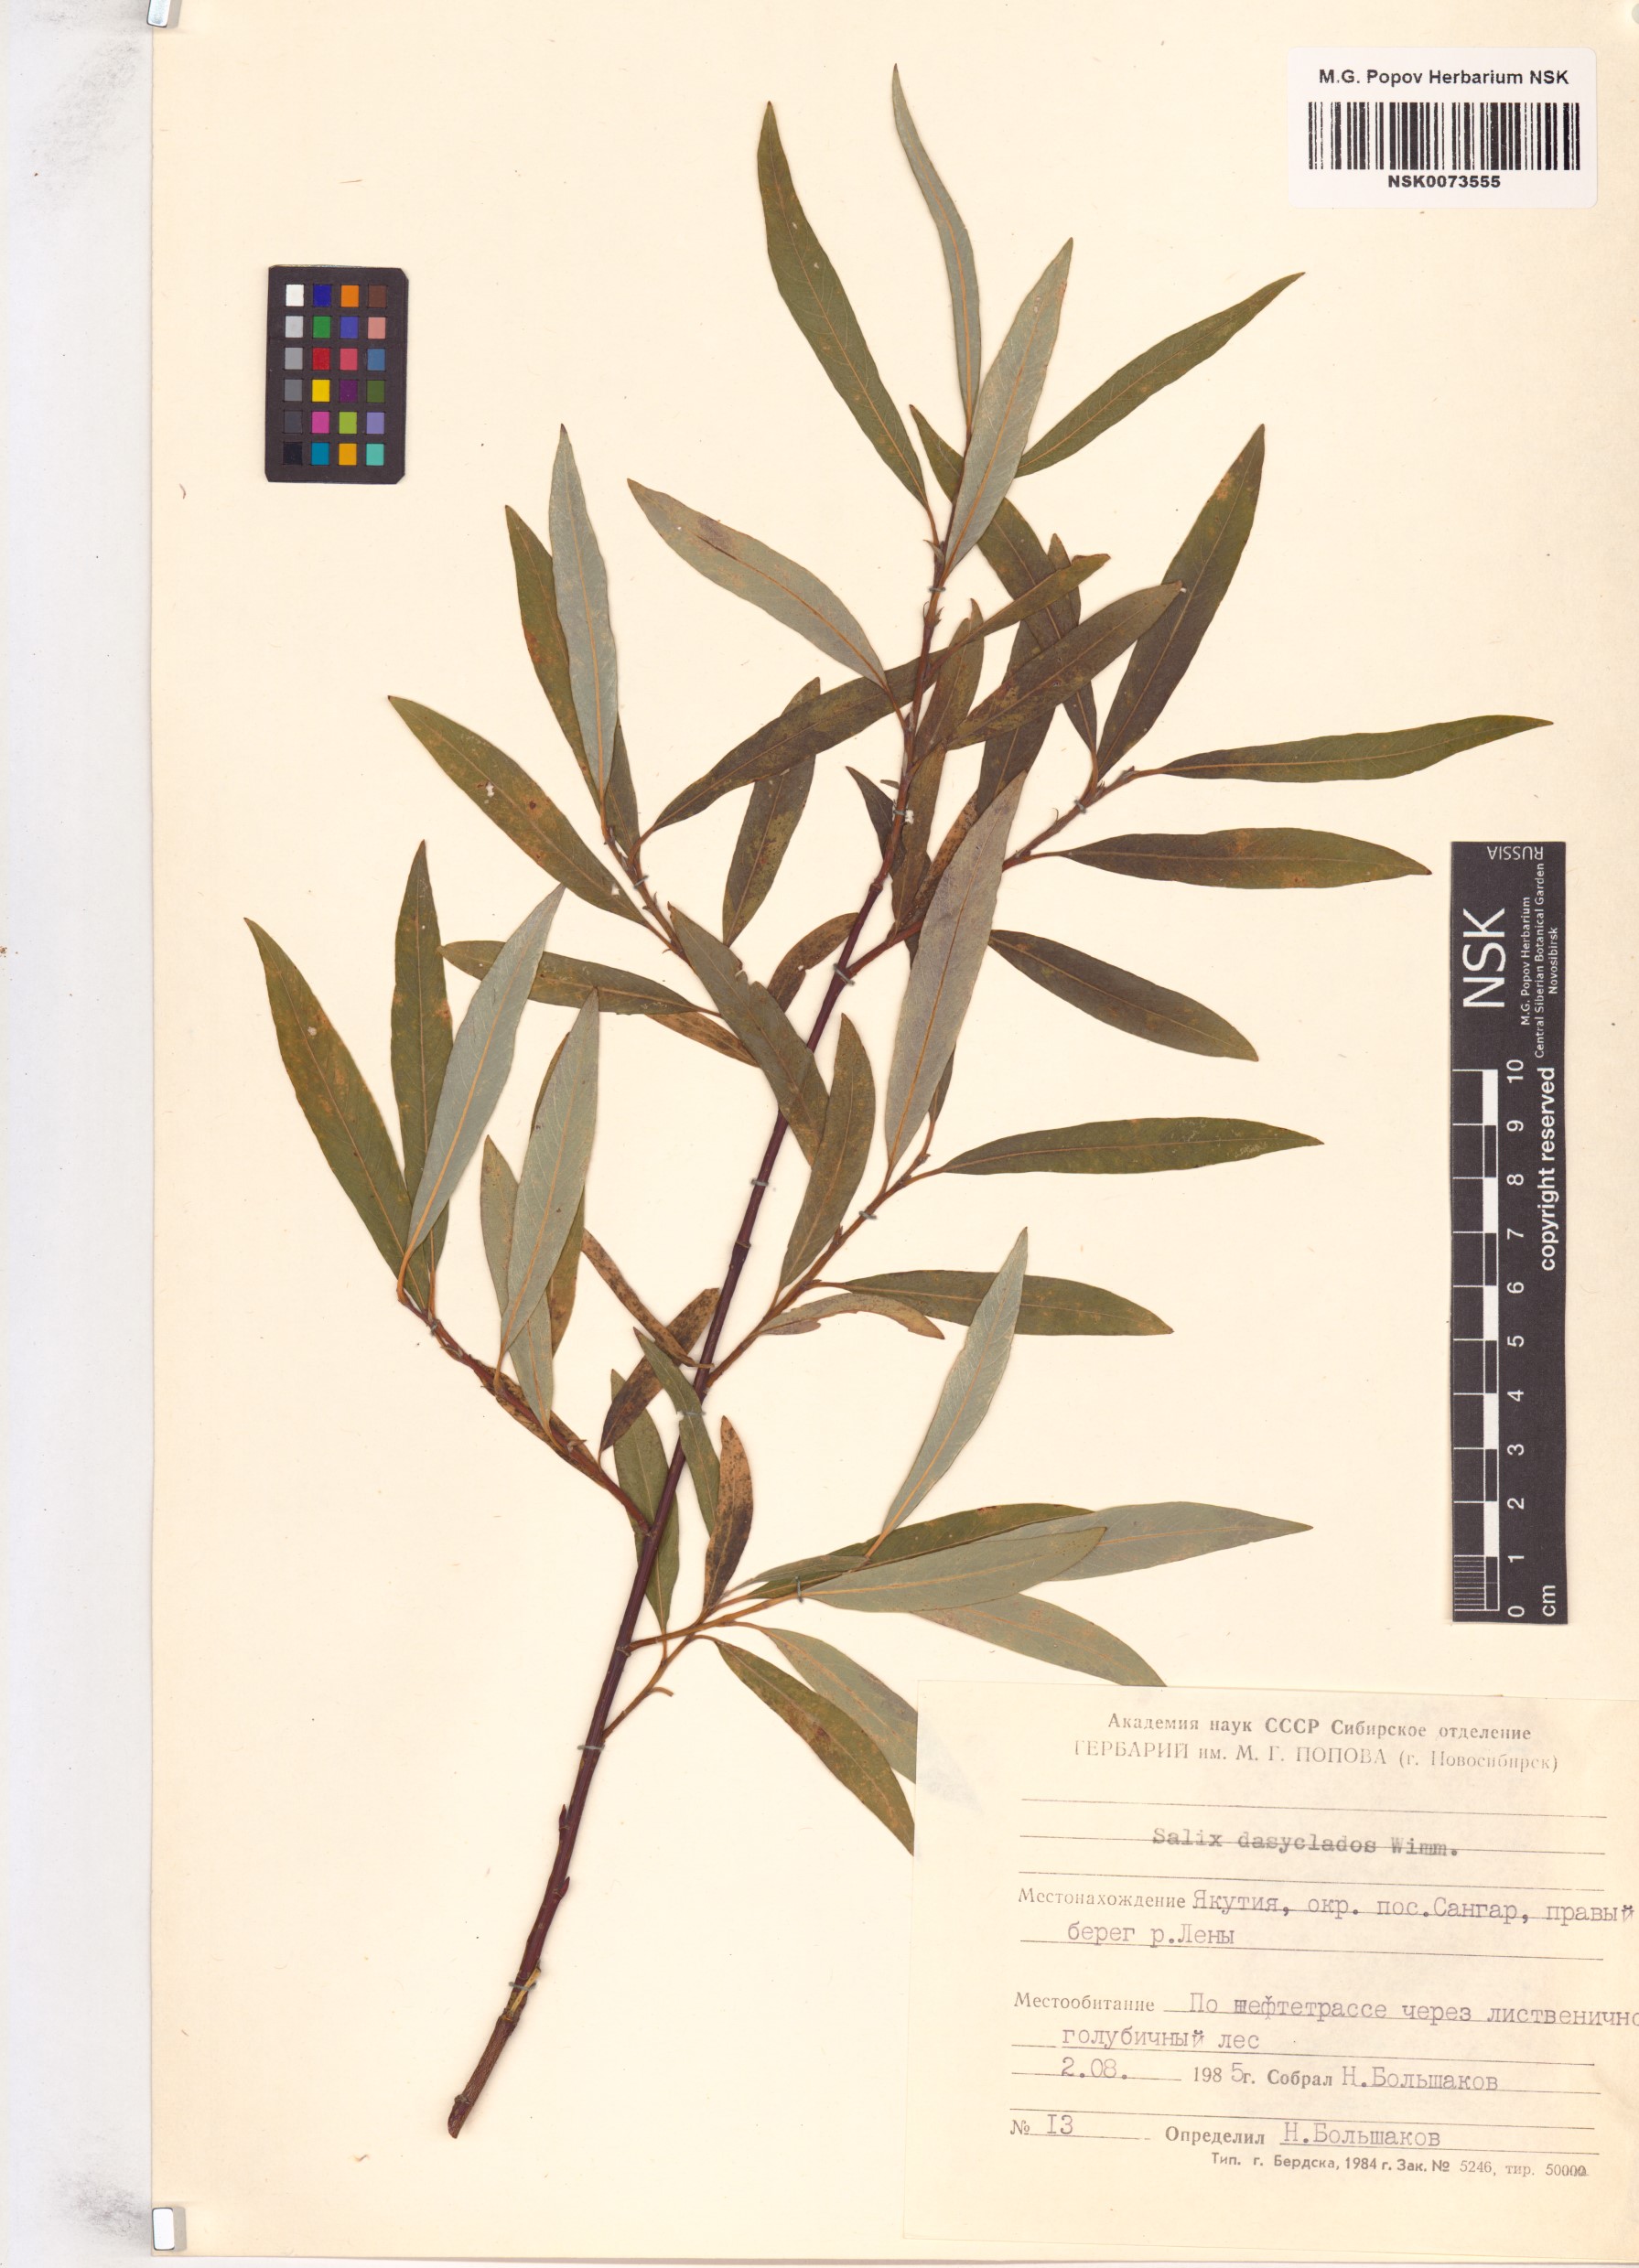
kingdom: Plantae
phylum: Tracheophyta
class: Magnoliopsida
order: Malpighiales
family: Salicaceae
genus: Salix
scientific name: Salix gmelinii
